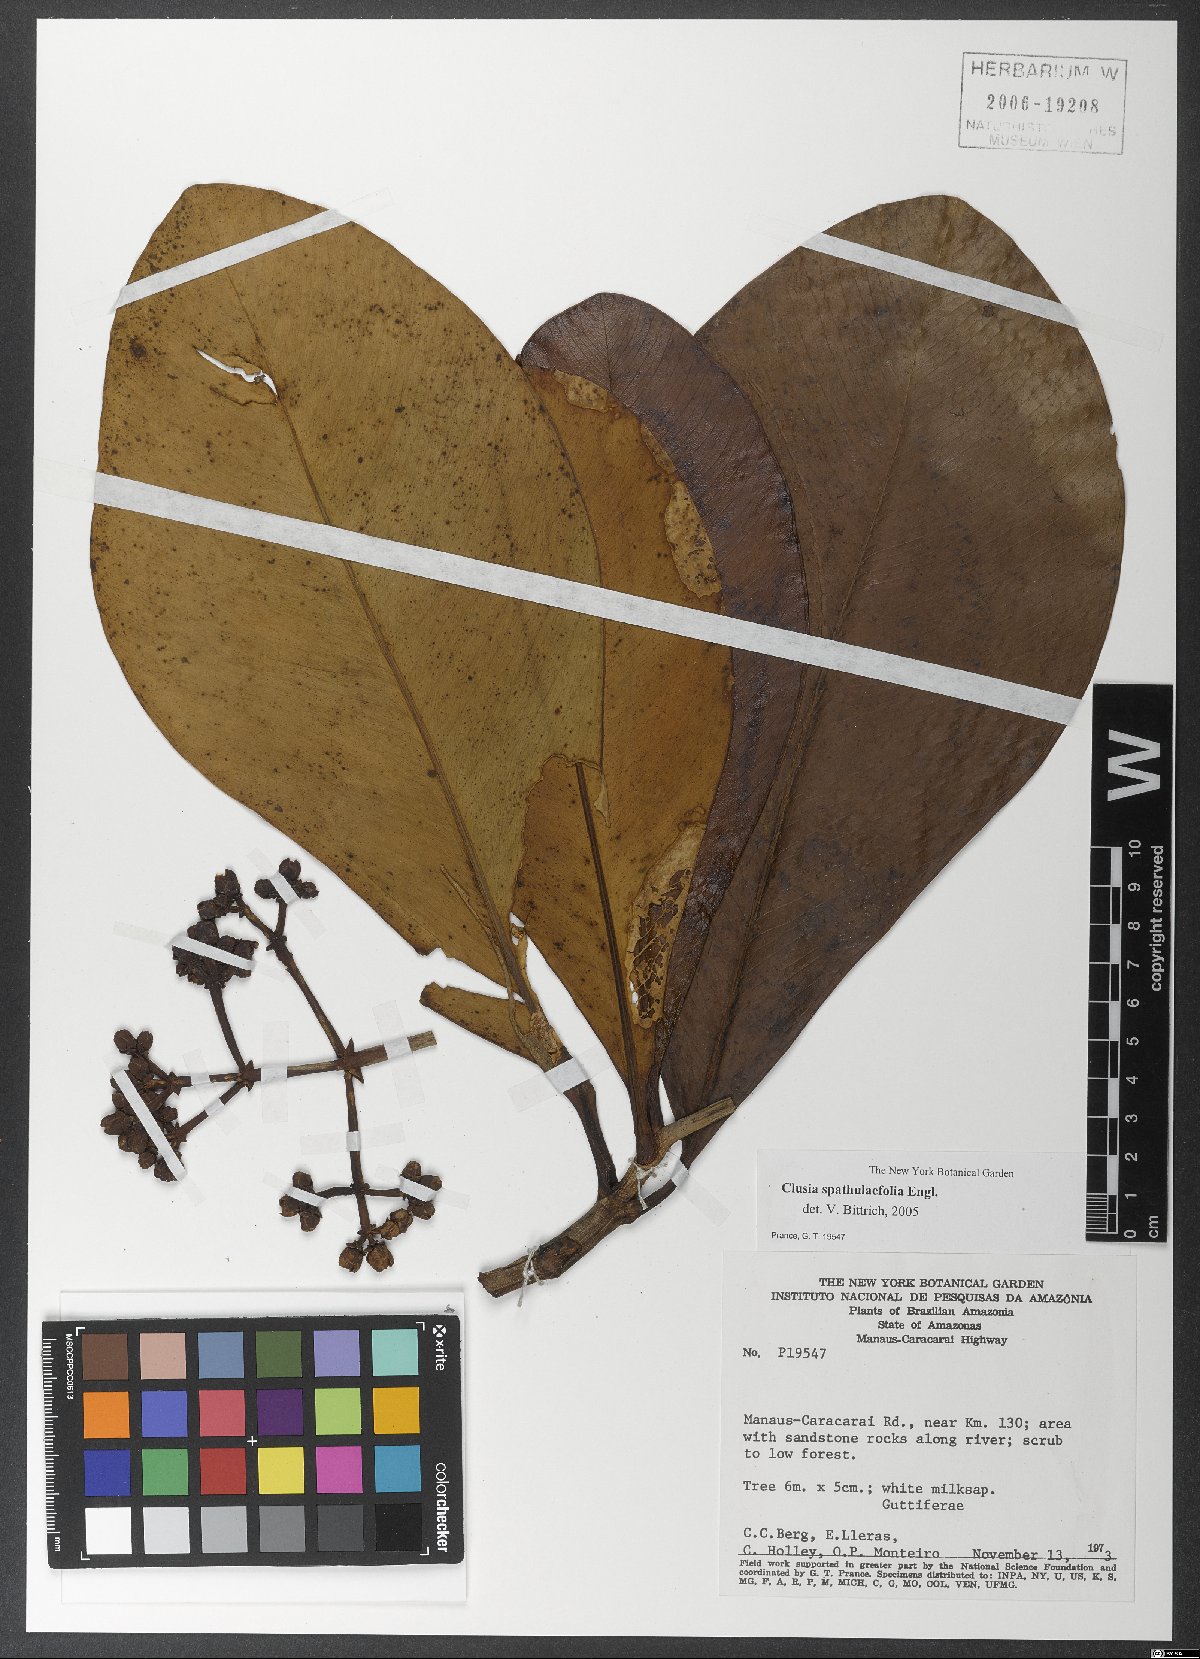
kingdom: Plantae
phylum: Tracheophyta
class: Magnoliopsida
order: Malpighiales
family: Clusiaceae
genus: Clusia
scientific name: Clusia spathulifolia
